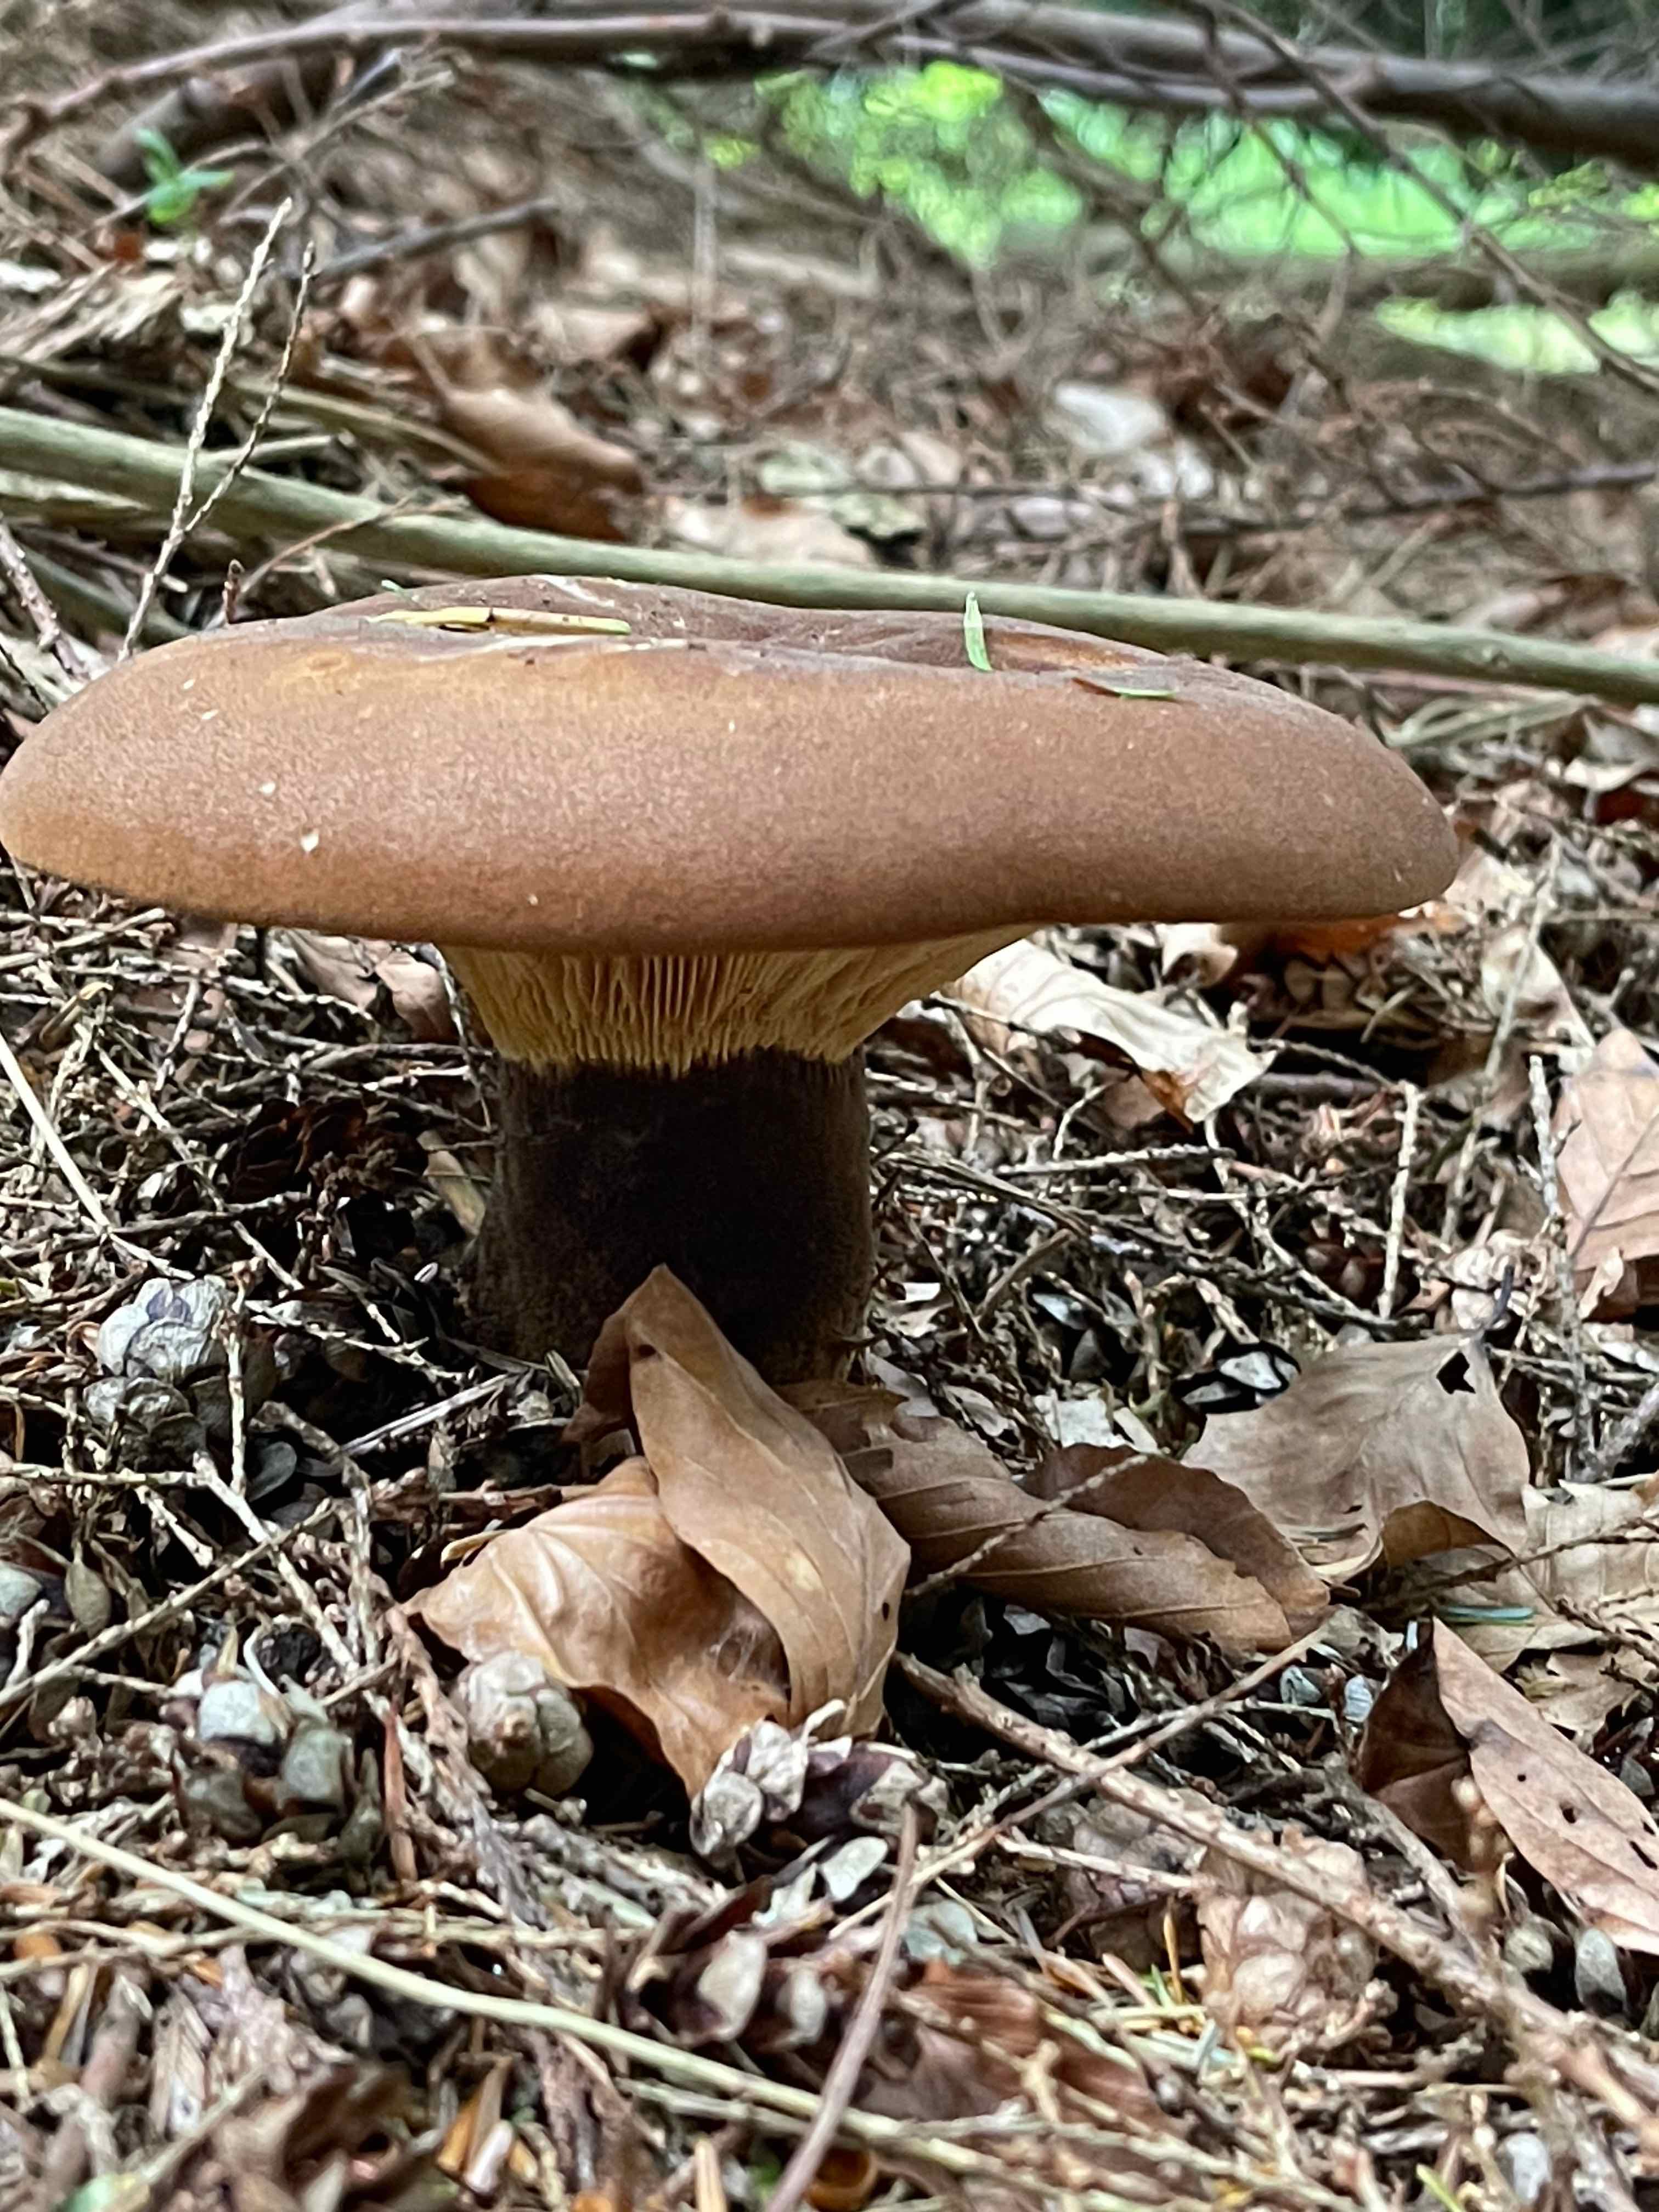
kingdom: Fungi
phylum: Basidiomycota
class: Agaricomycetes
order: Boletales
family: Tapinellaceae
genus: Tapinella
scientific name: Tapinella atrotomentosa
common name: sortfiltet viftesvamp
